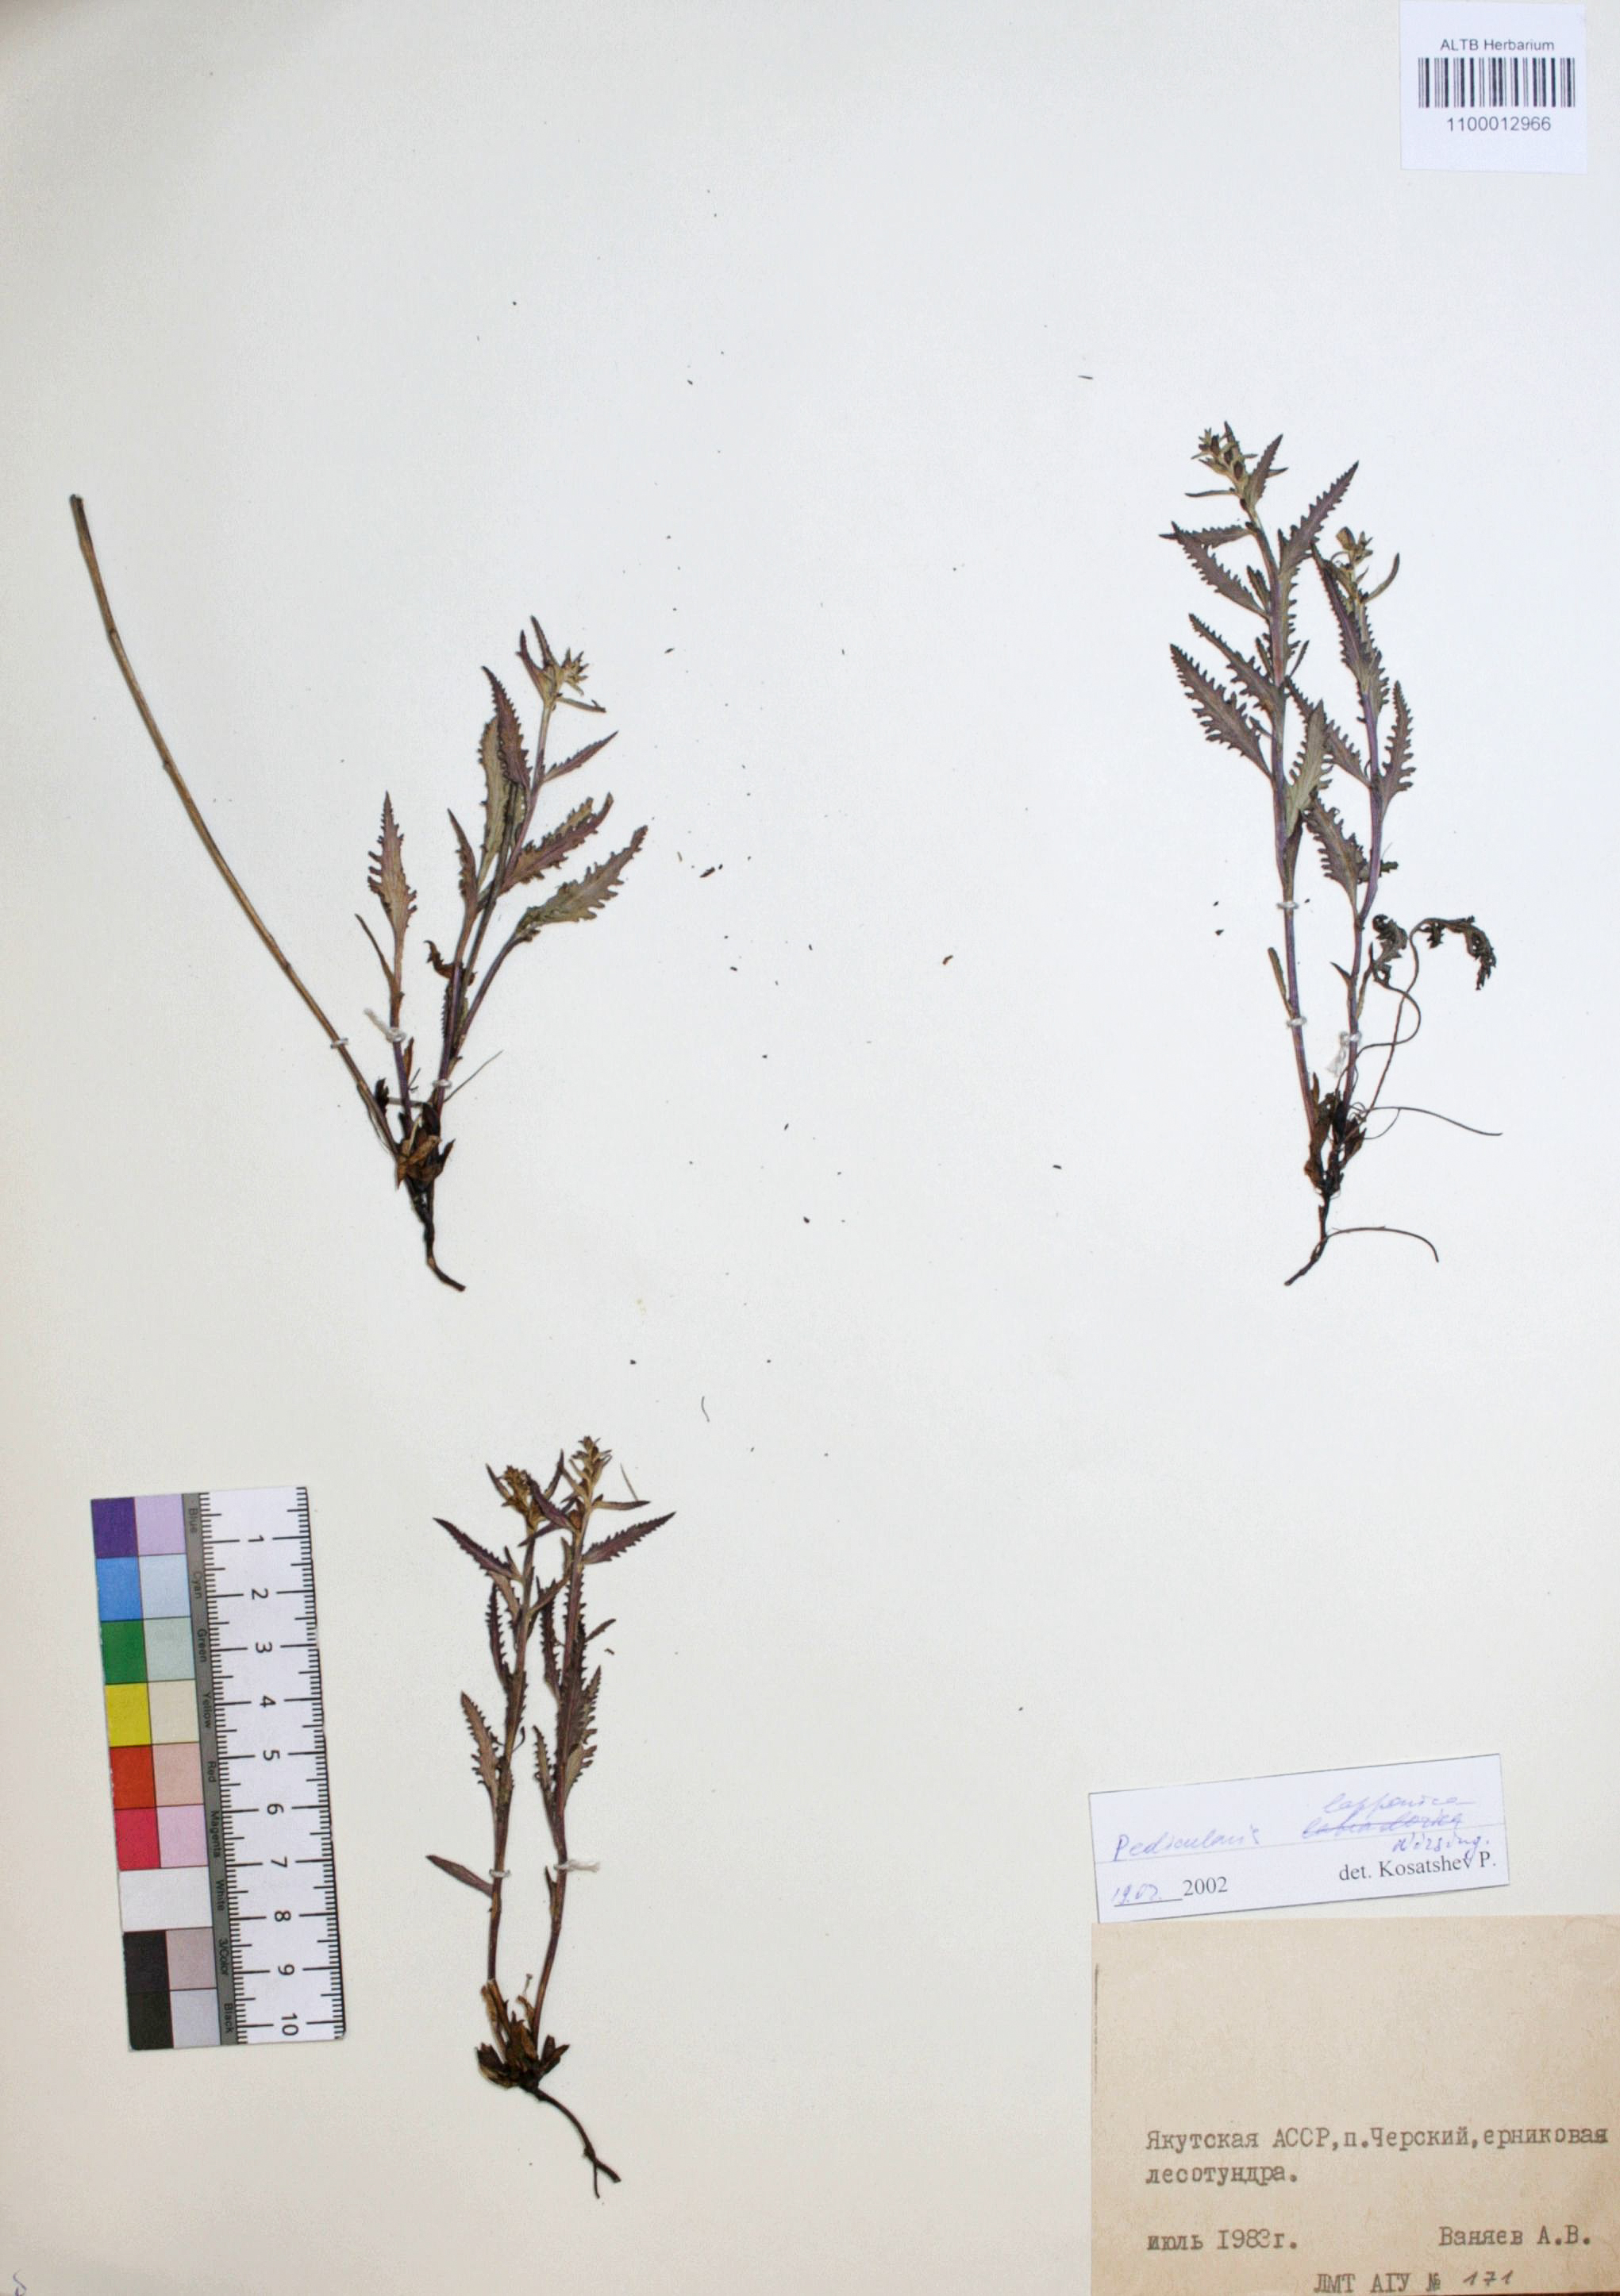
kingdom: Plantae
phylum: Tracheophyta
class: Magnoliopsida
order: Lamiales
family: Orobanchaceae
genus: Pedicularis
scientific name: Pedicularis lapponica
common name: Lapland lousewort
